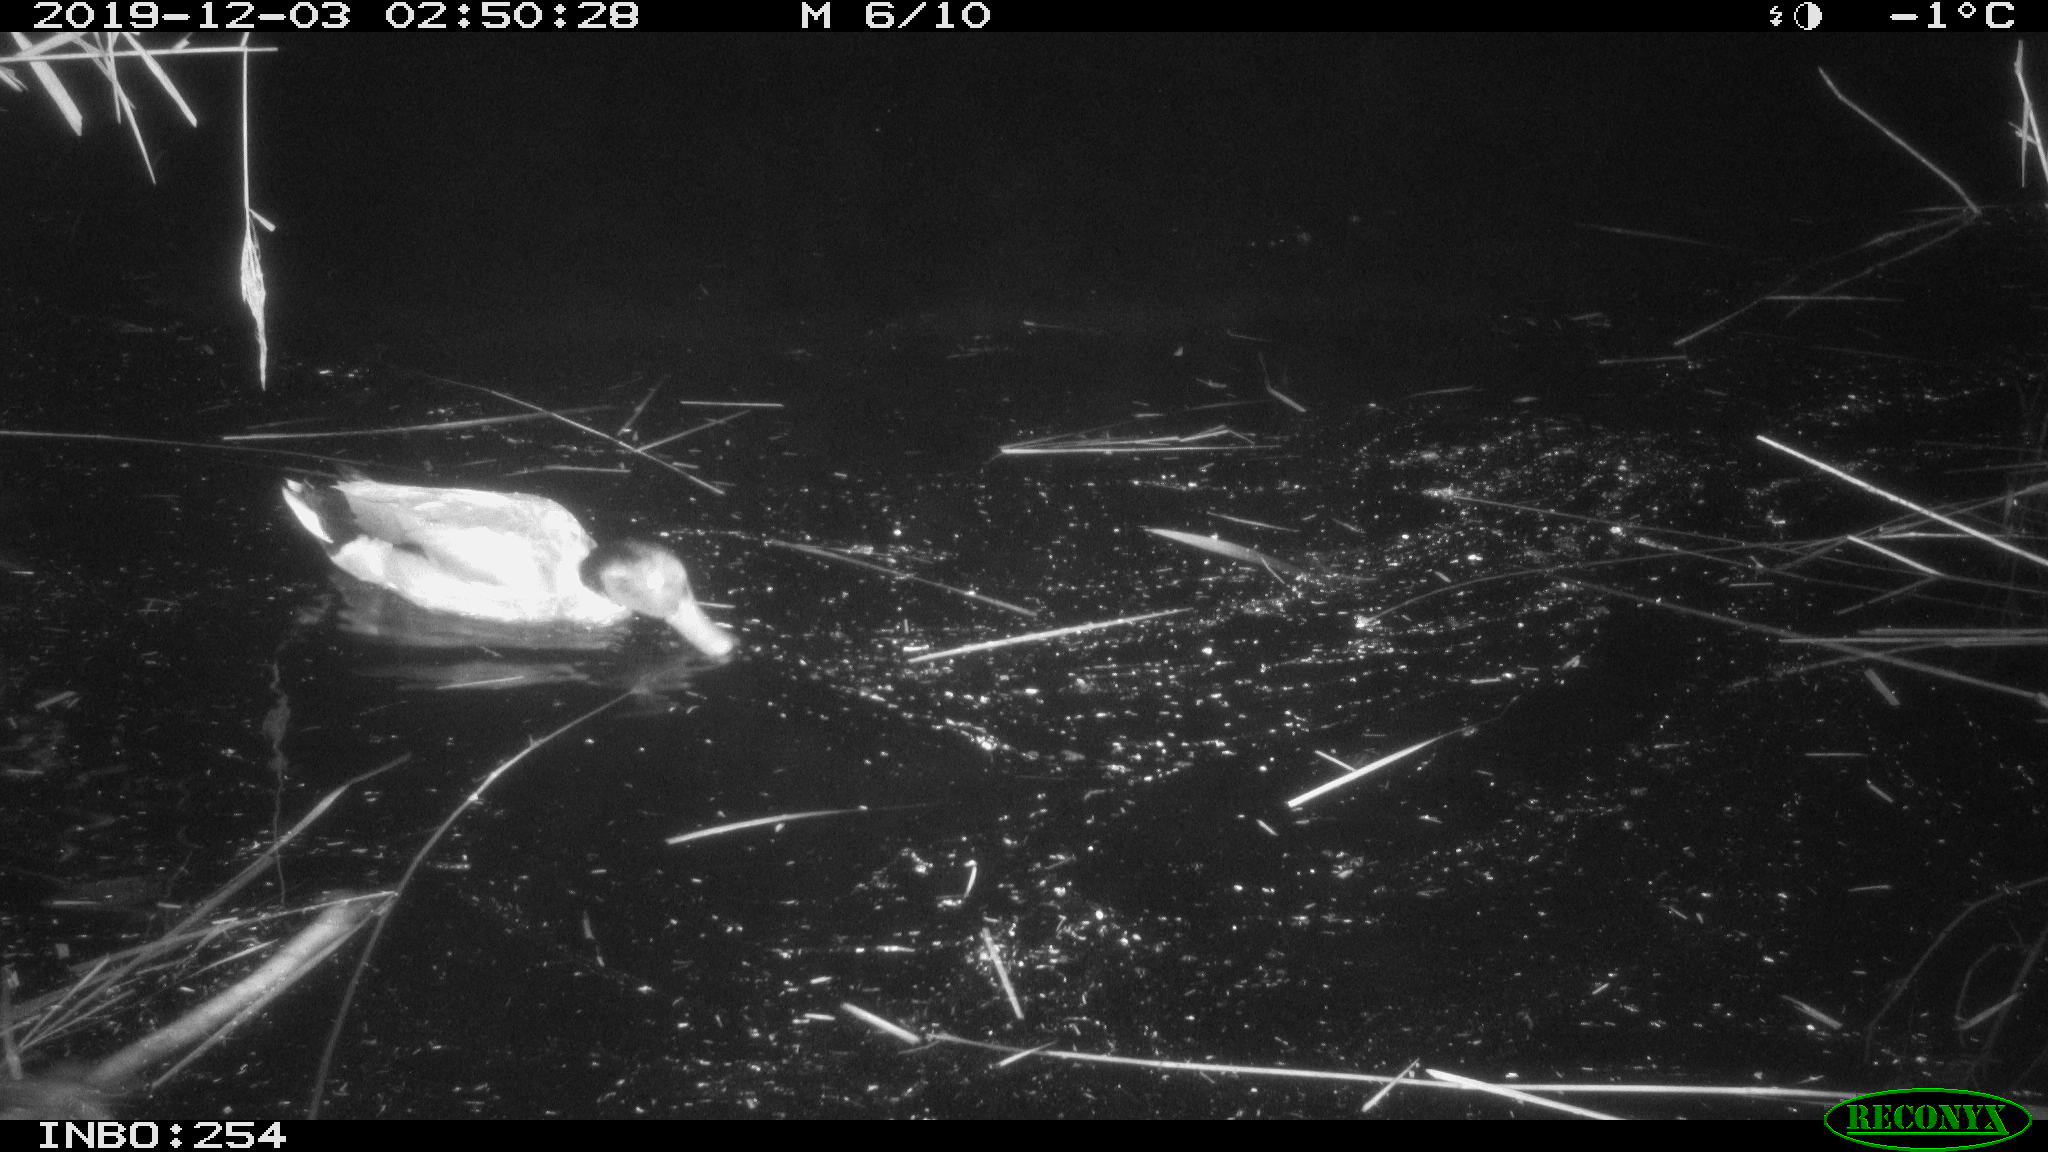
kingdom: Animalia
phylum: Chordata
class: Aves
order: Anseriformes
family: Anatidae
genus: Anas
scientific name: Anas platyrhynchos
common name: Mallard
